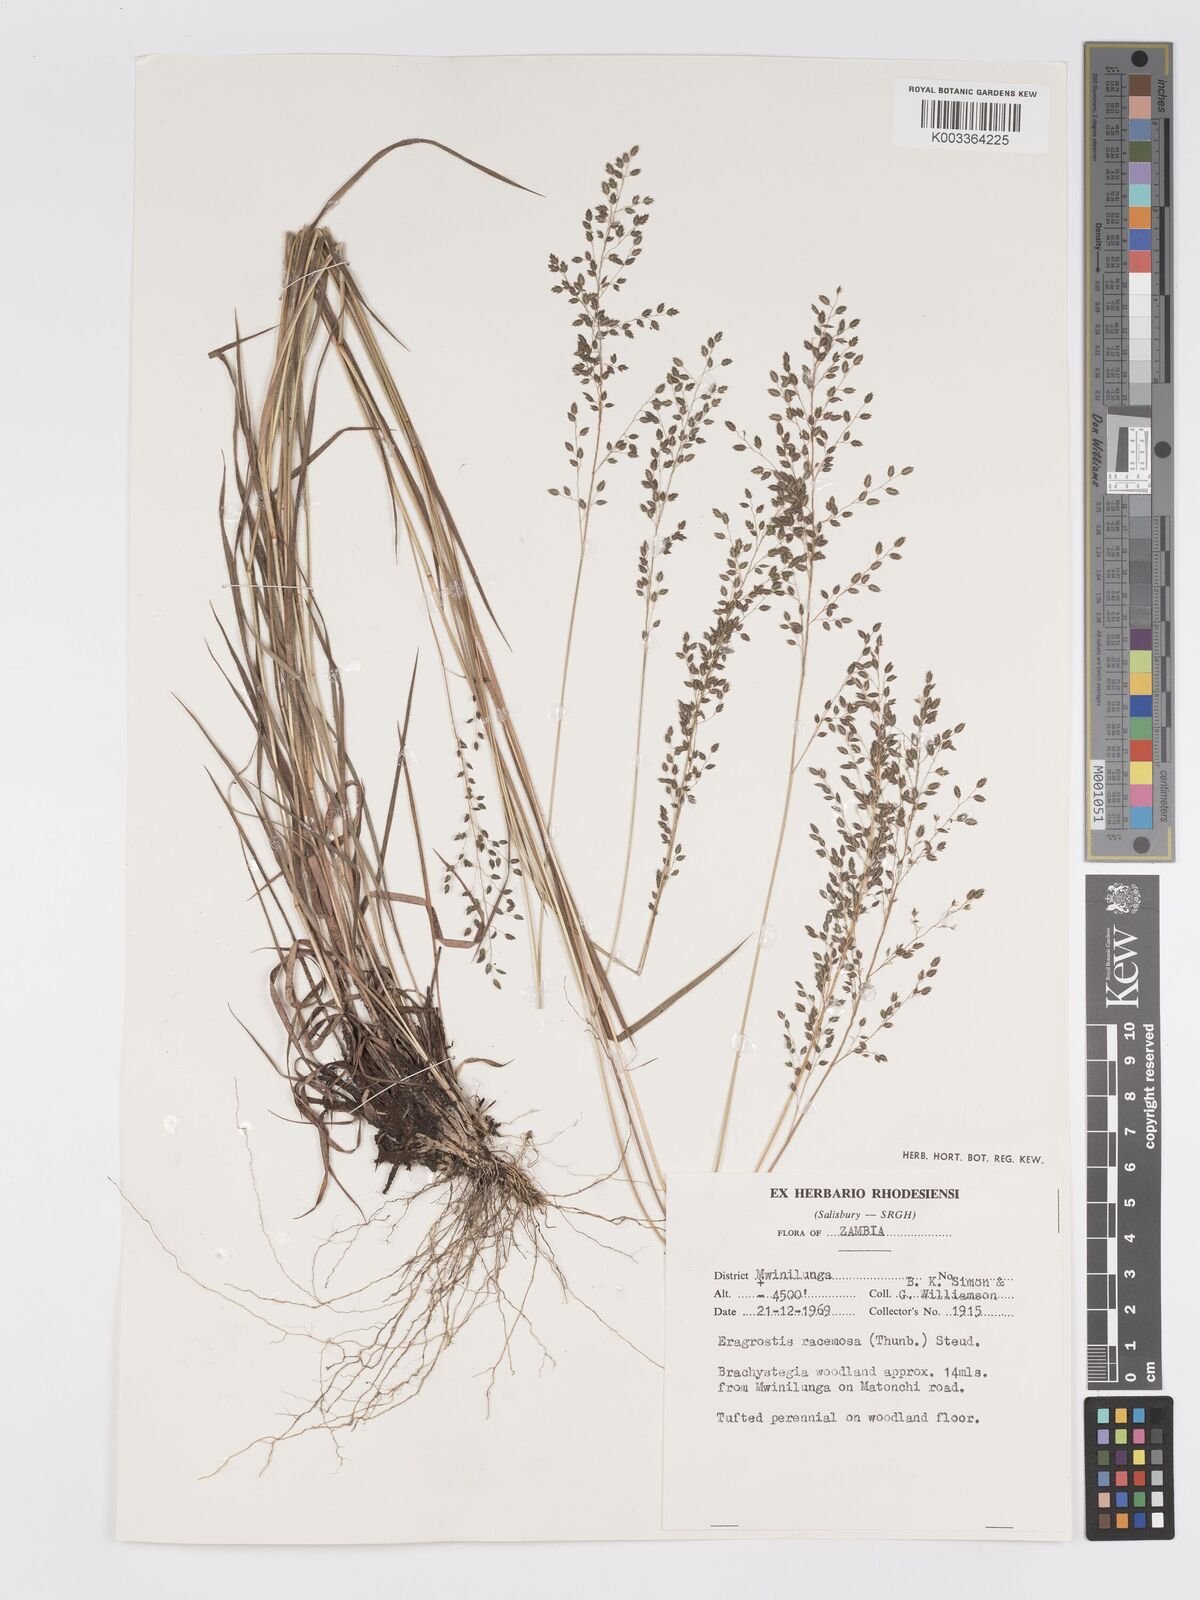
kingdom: Plantae
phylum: Tracheophyta
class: Liliopsida
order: Poales
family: Poaceae
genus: Eragrostis
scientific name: Eragrostis racemosa
